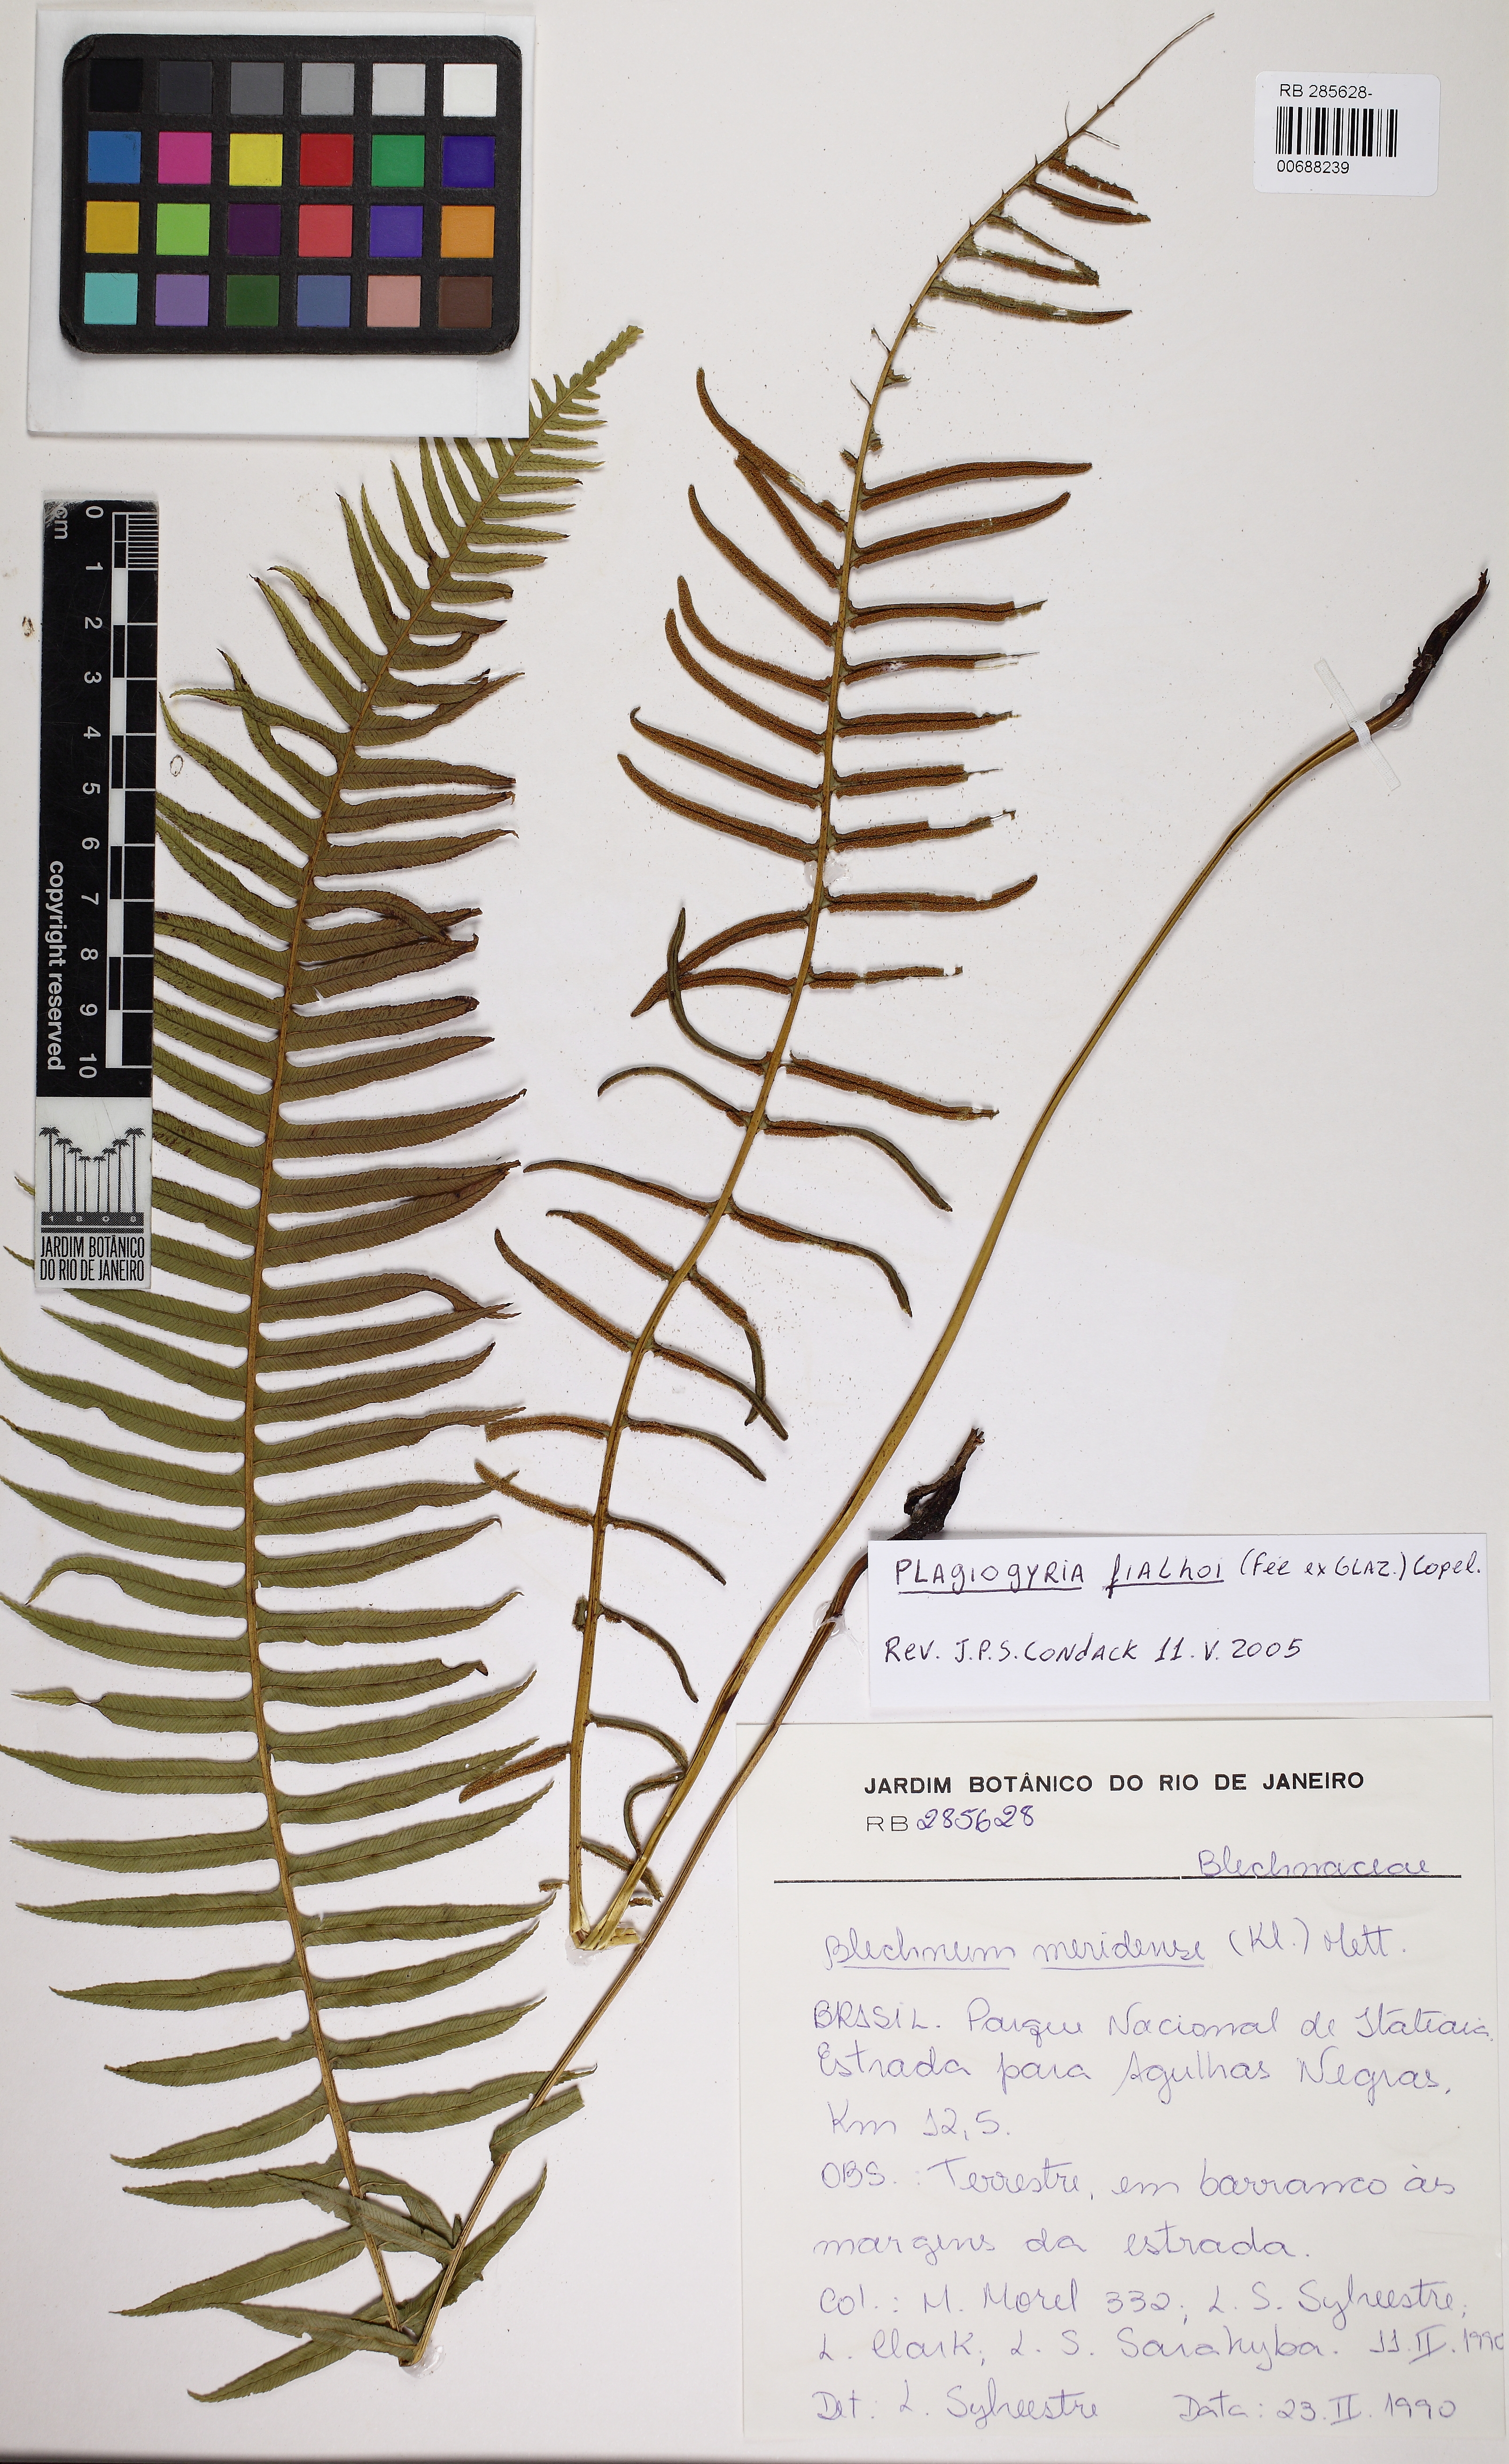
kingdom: Plantae
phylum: Tracheophyta
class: Polypodiopsida
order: Cyatheales
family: Plagiogyriaceae
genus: Plagiogyria
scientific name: Plagiogyria pectinata
